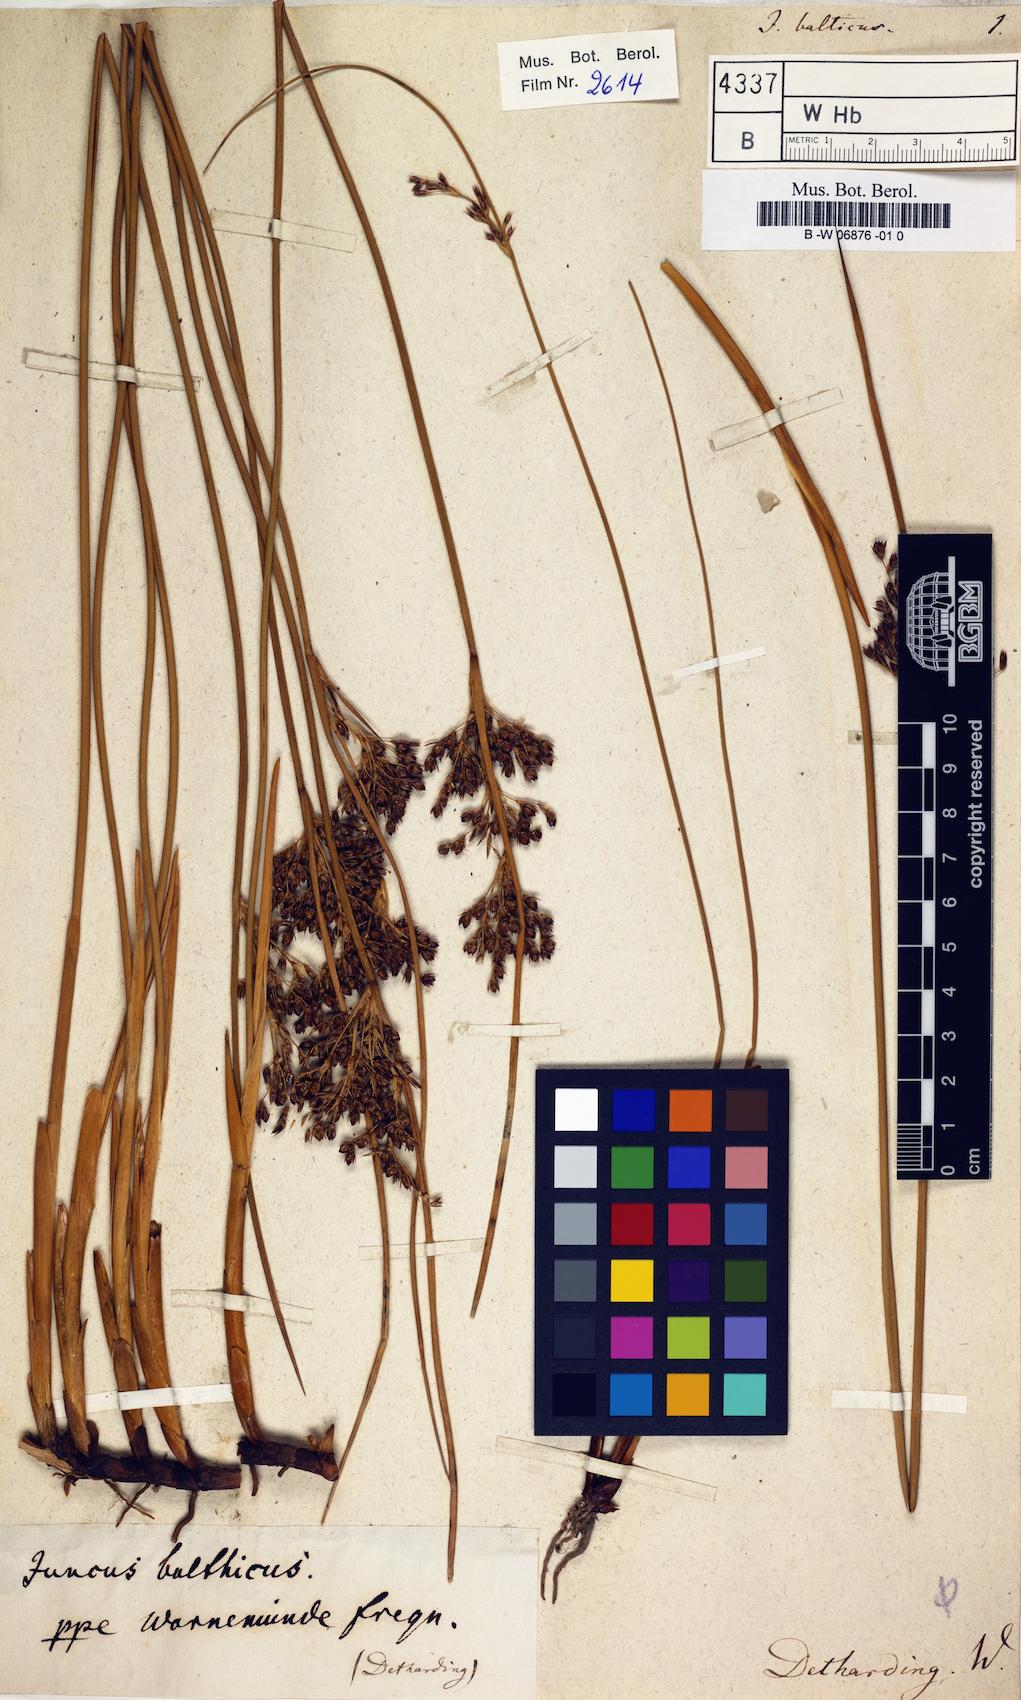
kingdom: Plantae
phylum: Tracheophyta
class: Liliopsida
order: Poales
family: Juncaceae
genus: Juncus
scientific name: Juncus balticus
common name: Baltic rush
